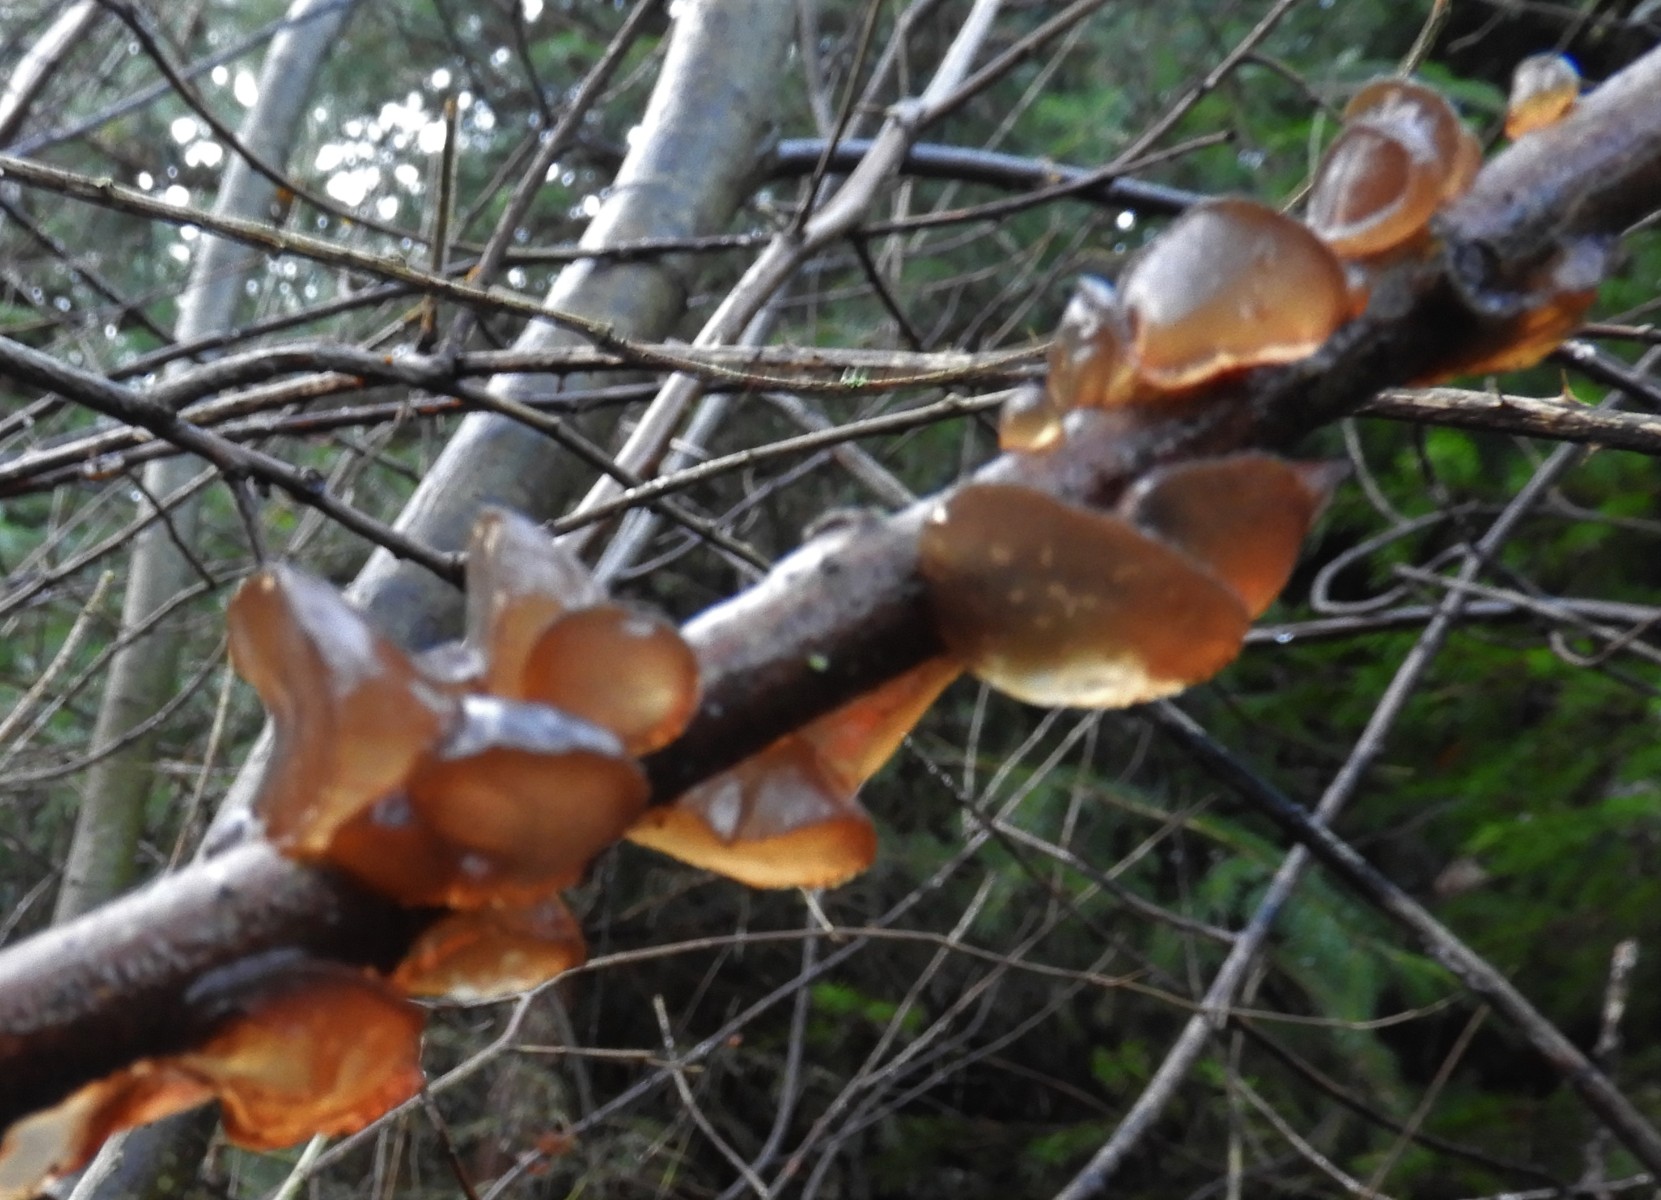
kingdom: Fungi
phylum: Basidiomycota
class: Agaricomycetes
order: Auriculariales
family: Auriculariaceae
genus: Exidia
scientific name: Exidia recisa
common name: pile-bævretop
